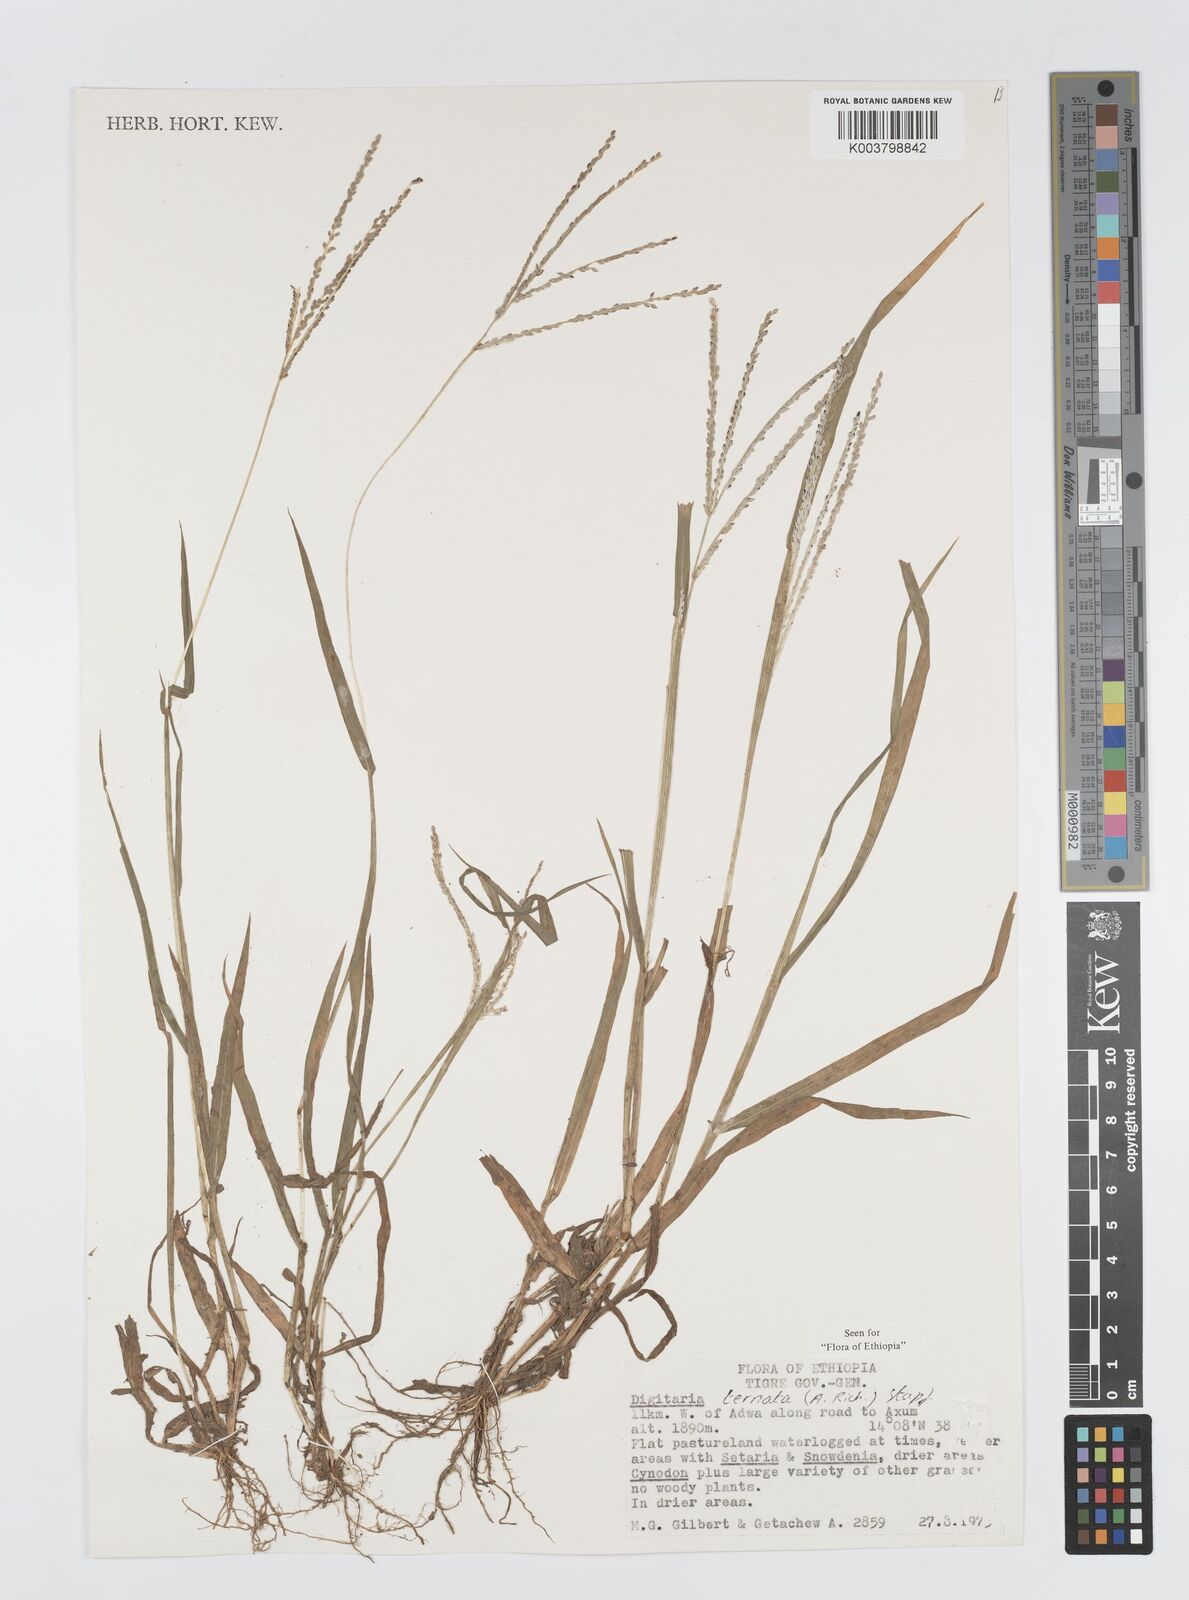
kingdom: Plantae
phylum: Tracheophyta
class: Liliopsida
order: Poales
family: Poaceae
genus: Digitaria
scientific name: Digitaria ternata
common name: Blackseed crabgrass
